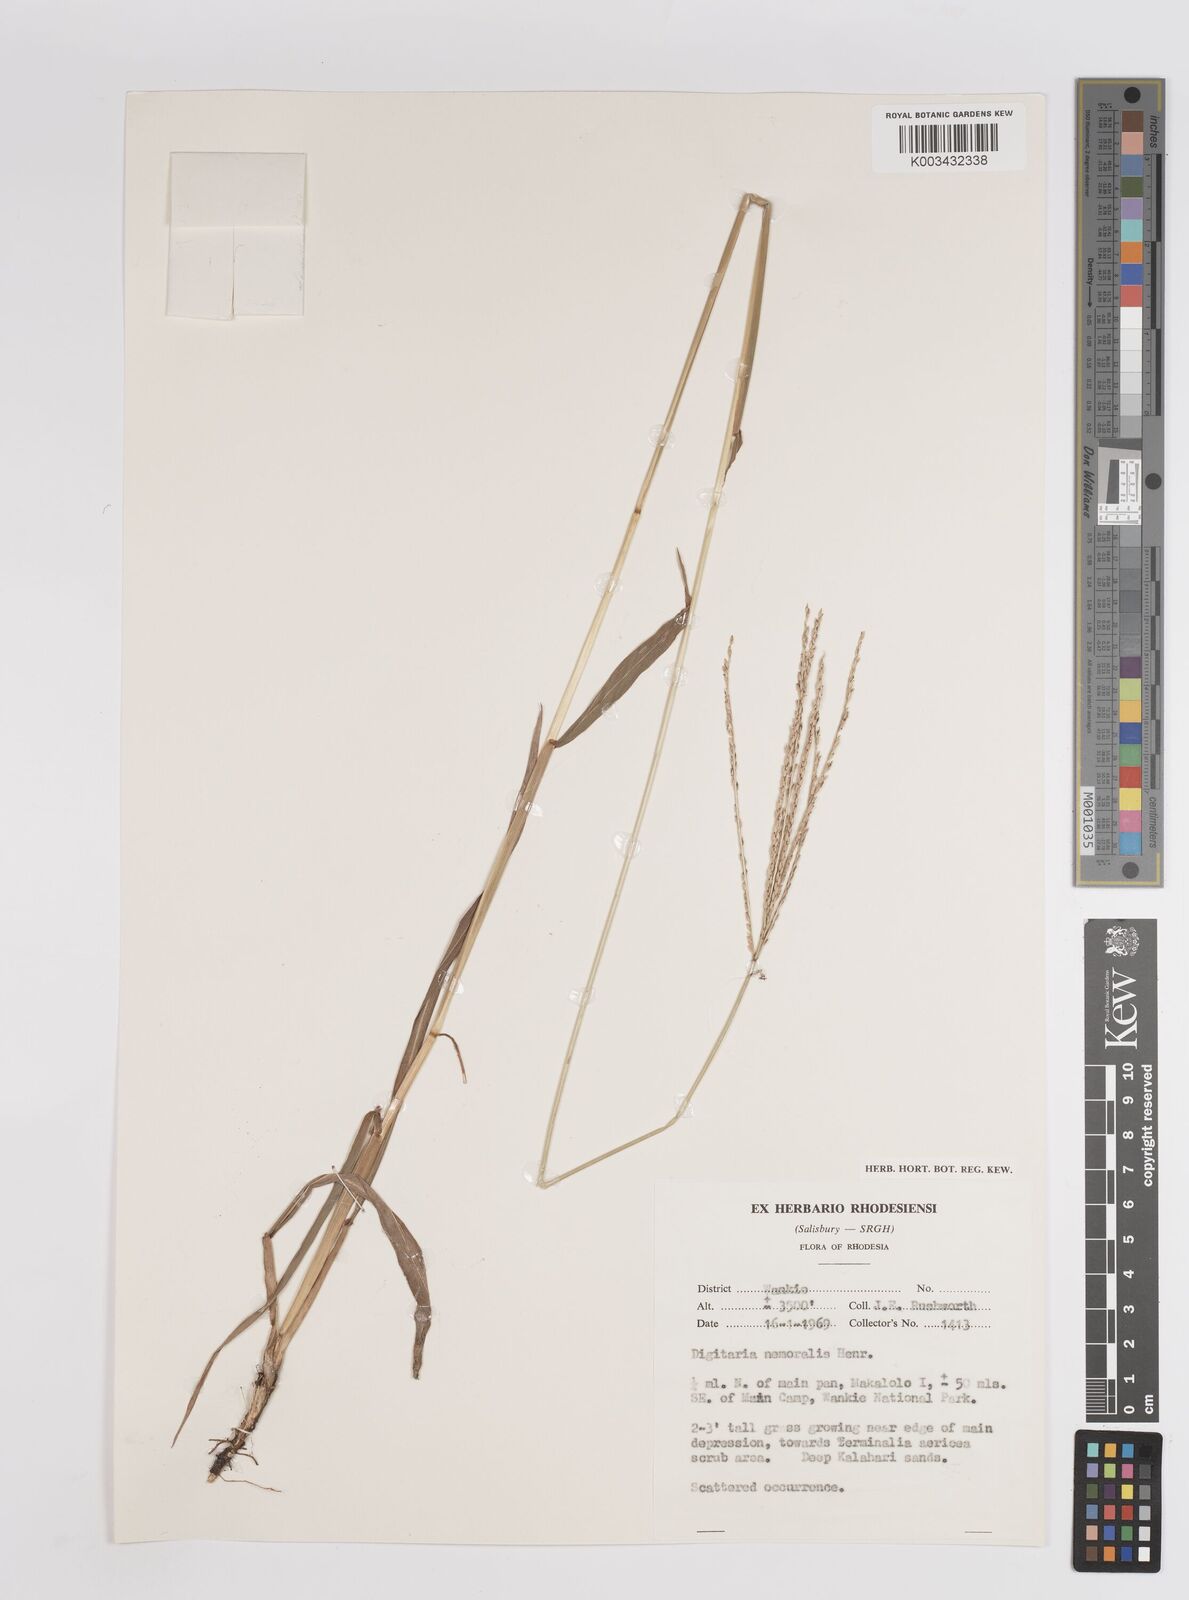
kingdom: Plantae
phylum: Tracheophyta
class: Liliopsida
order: Poales
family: Poaceae
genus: Digitaria
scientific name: Digitaria eriantha
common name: Digitgrass
